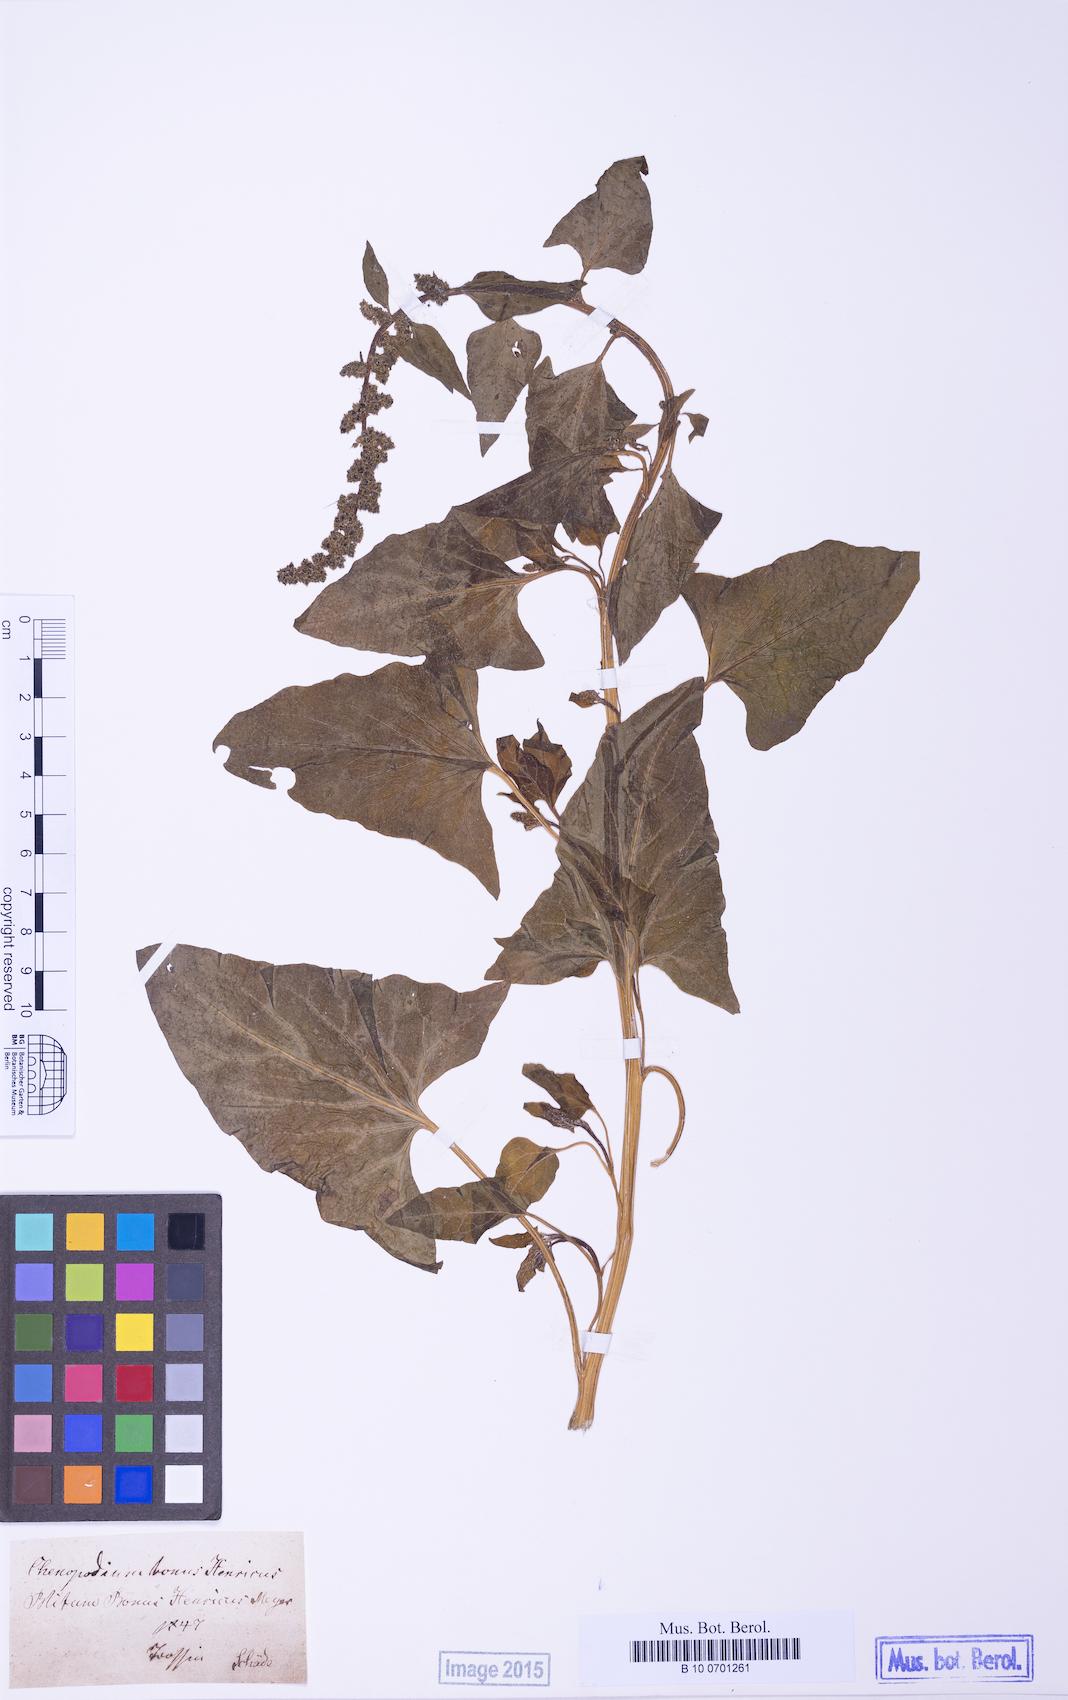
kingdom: Plantae
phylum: Tracheophyta
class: Magnoliopsida
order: Caryophyllales
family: Amaranthaceae
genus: Blitum
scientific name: Blitum bonus-henricus
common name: Good king henry
